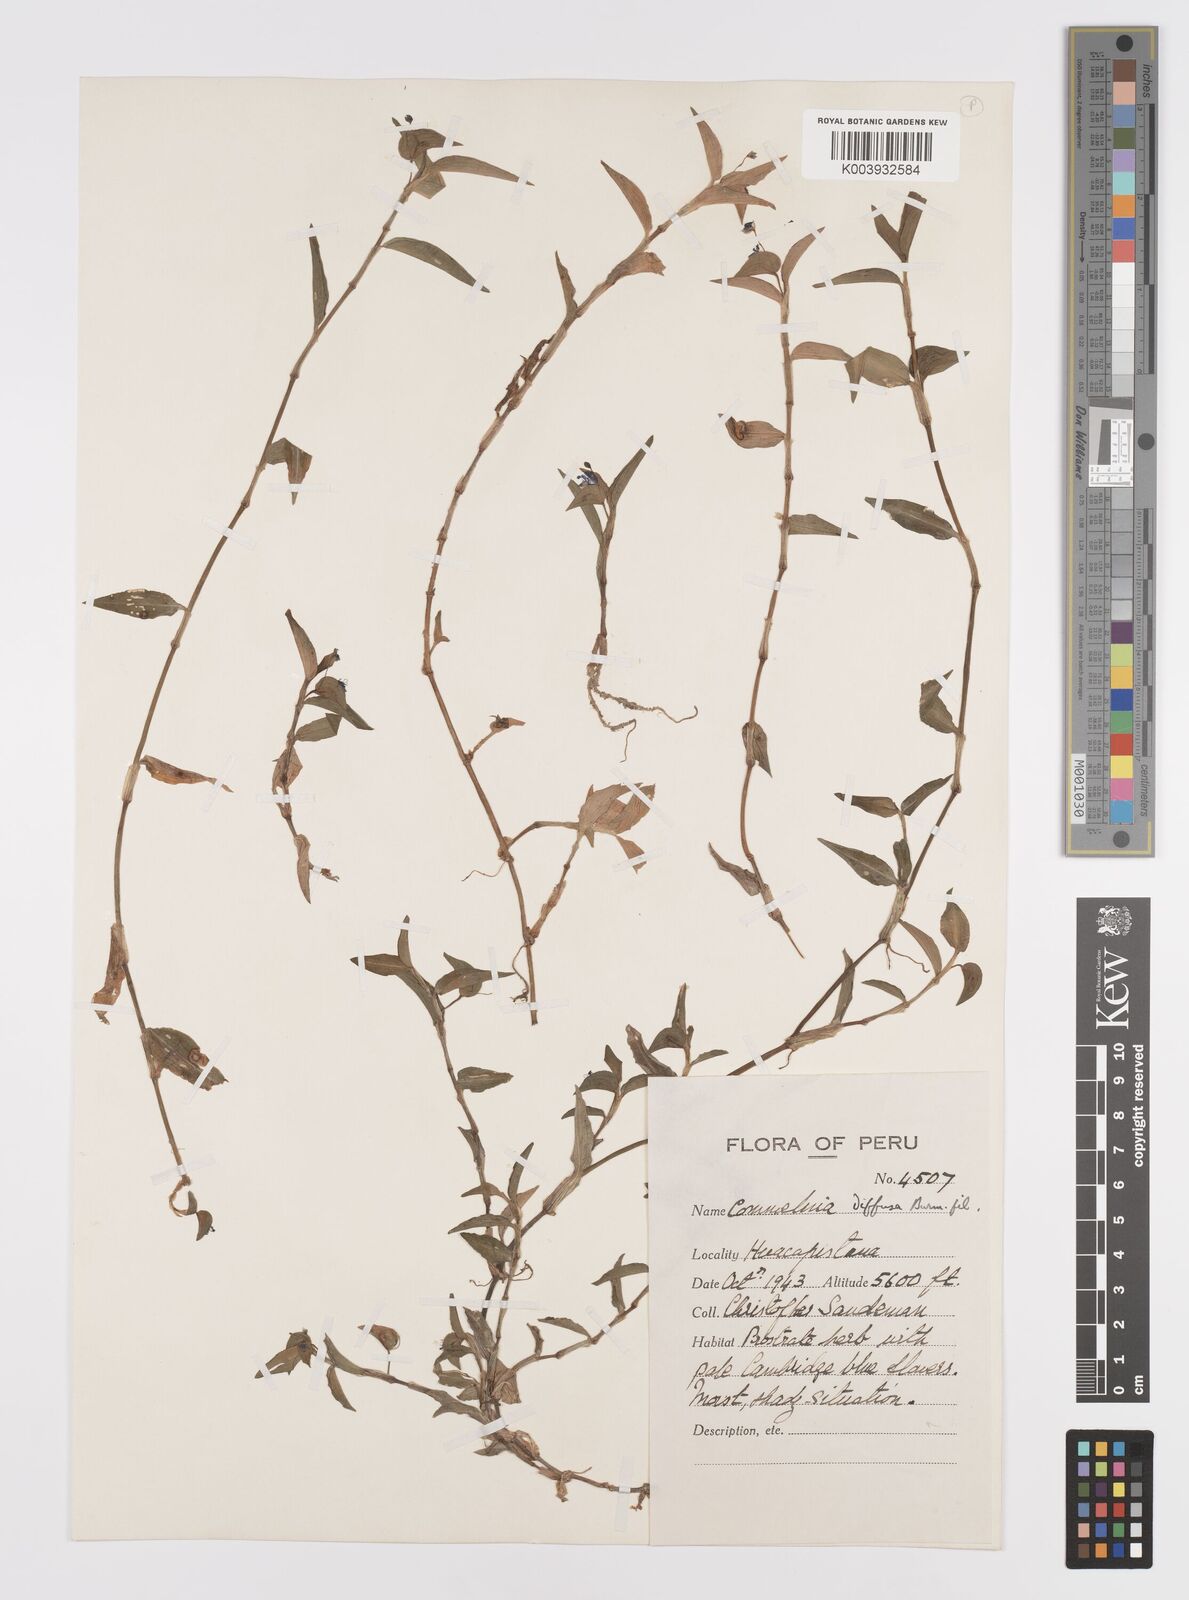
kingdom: Plantae
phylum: Tracheophyta
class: Liliopsida
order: Commelinales
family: Commelinaceae
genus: Commelina
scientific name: Commelina diffusa
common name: Climbing dayflower
